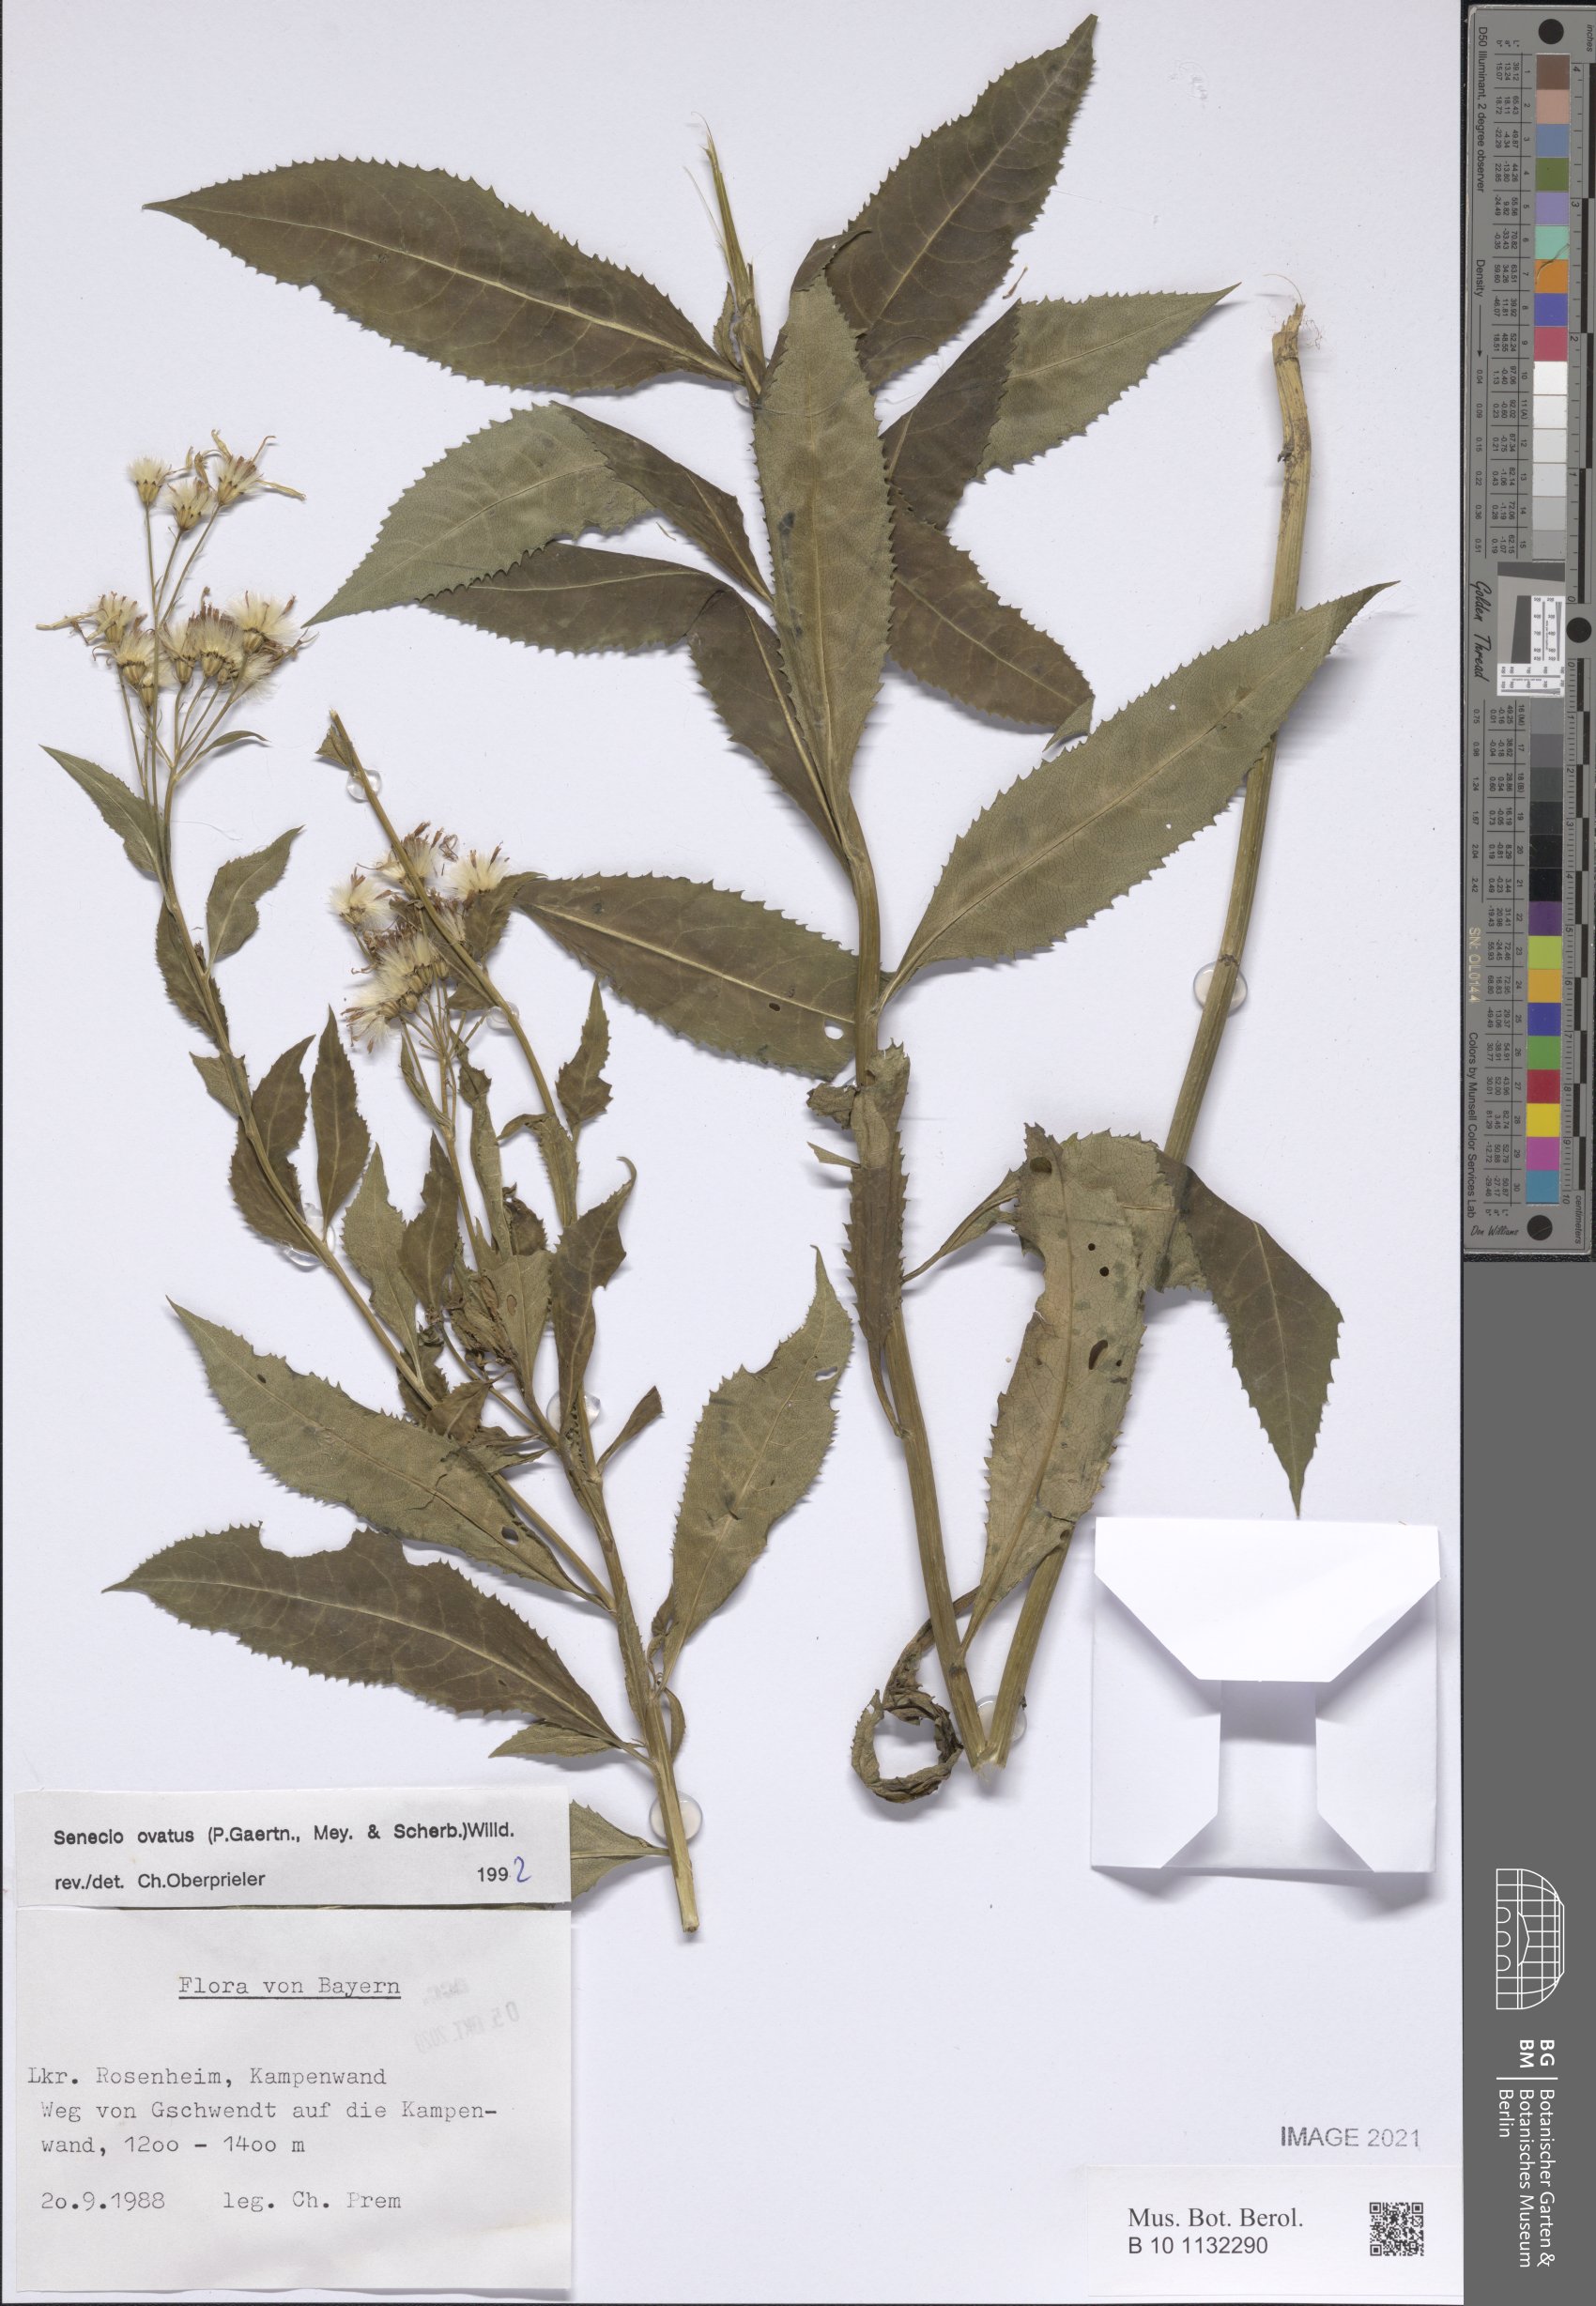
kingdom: Plantae
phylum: Tracheophyta
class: Magnoliopsida
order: Asterales
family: Asteraceae
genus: Senecio
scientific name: Senecio ovatus
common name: Wood ragwort
